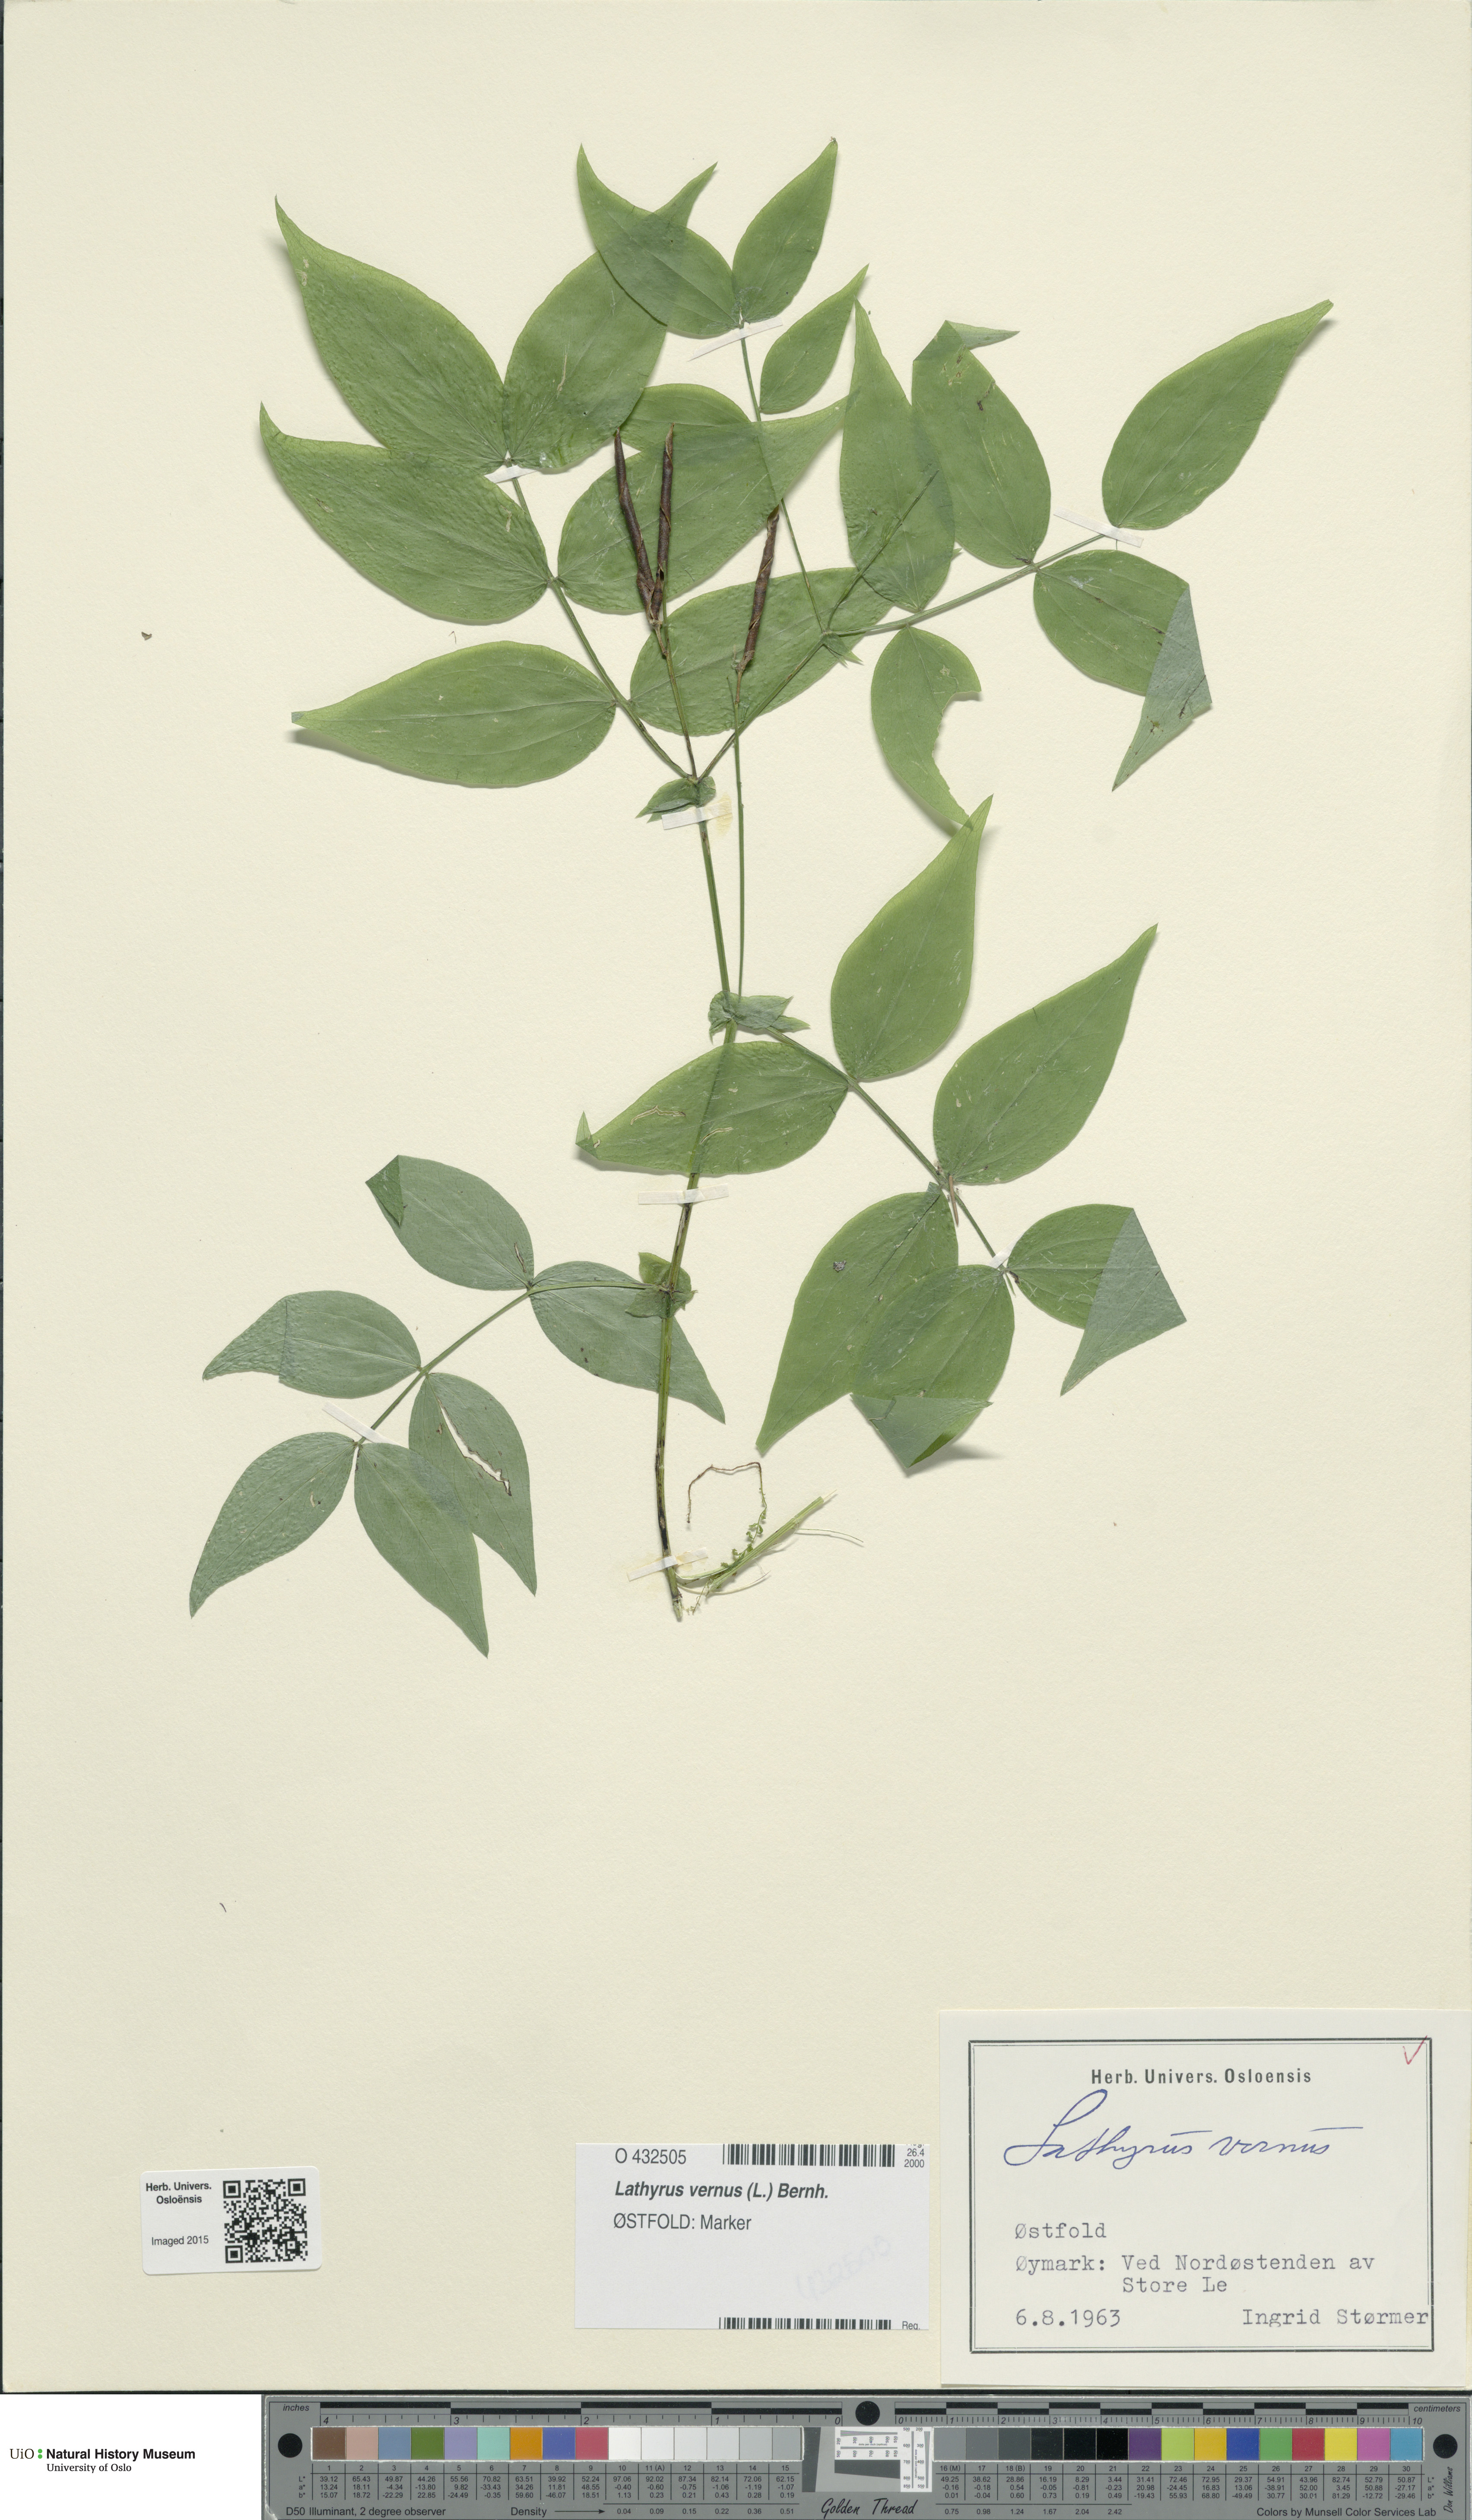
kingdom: Plantae
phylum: Tracheophyta
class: Magnoliopsida
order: Fabales
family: Fabaceae
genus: Lathyrus
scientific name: Lathyrus vernus
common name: Spring pea
